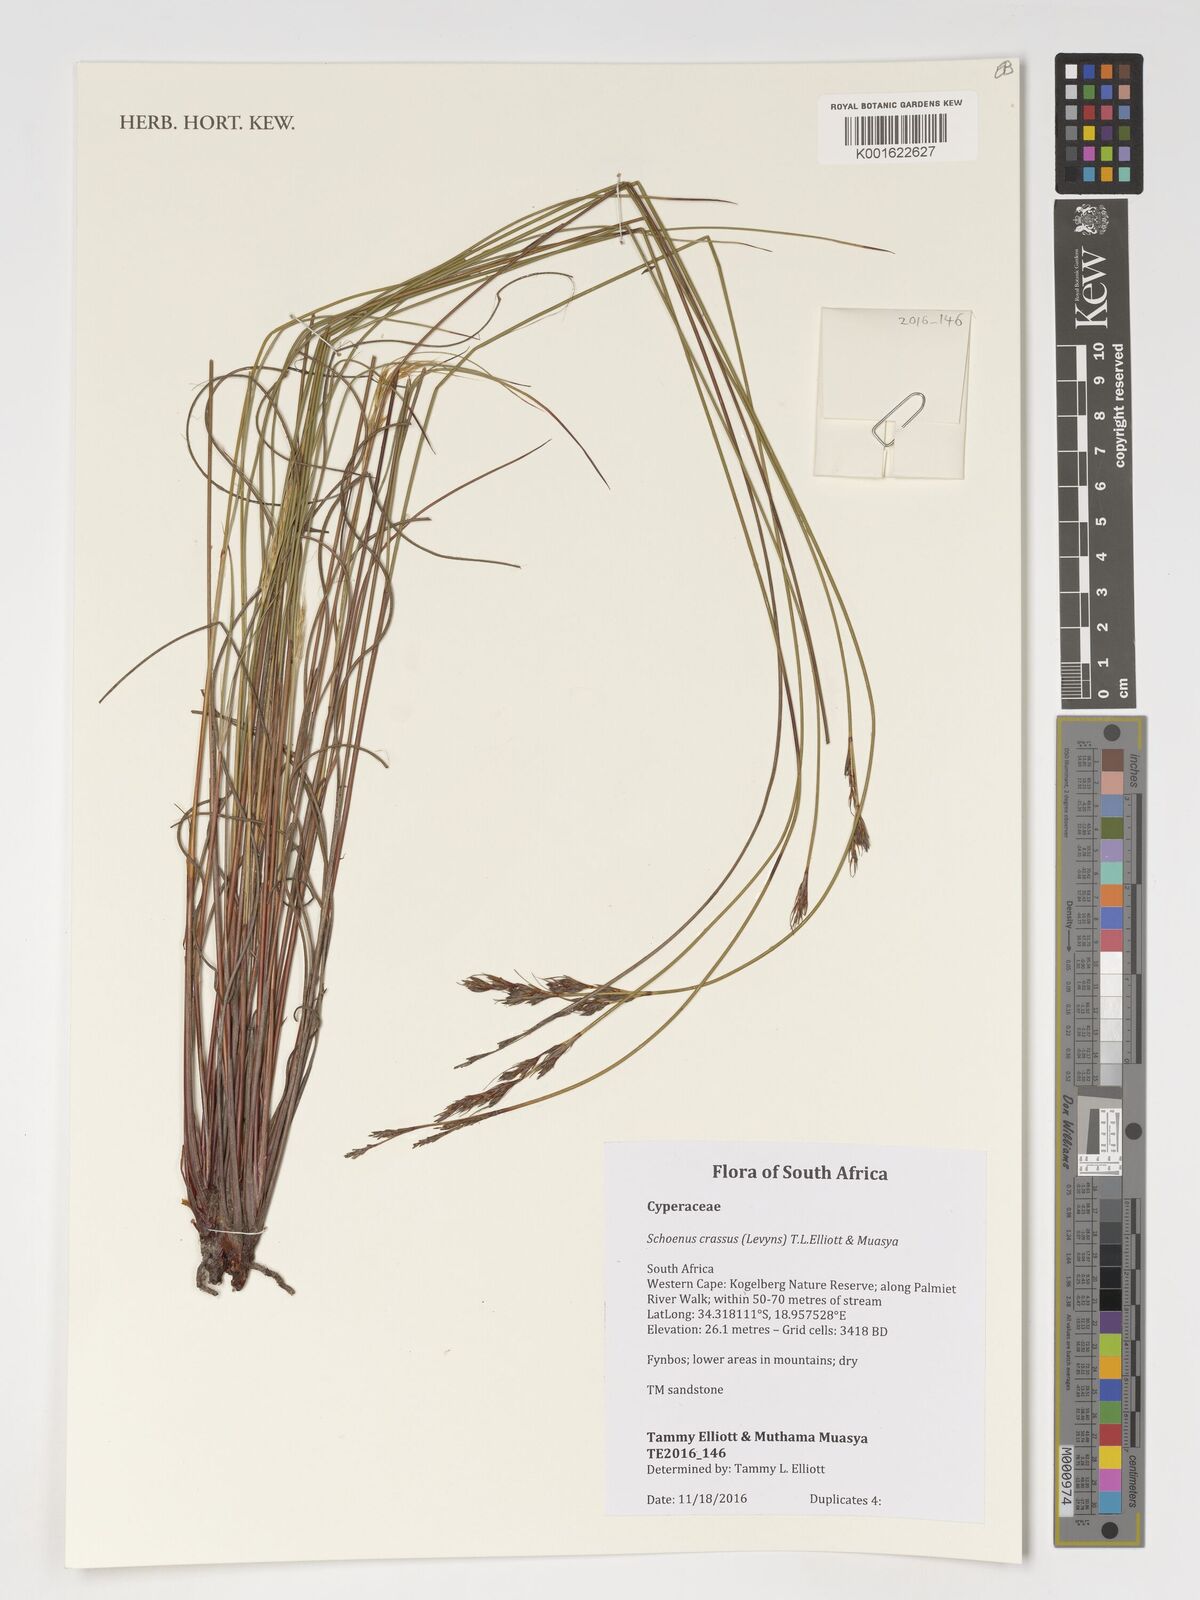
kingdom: Plantae
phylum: Tracheophyta
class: Liliopsida
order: Poales
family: Cyperaceae
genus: Schoenus
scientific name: Schoenus crassus
